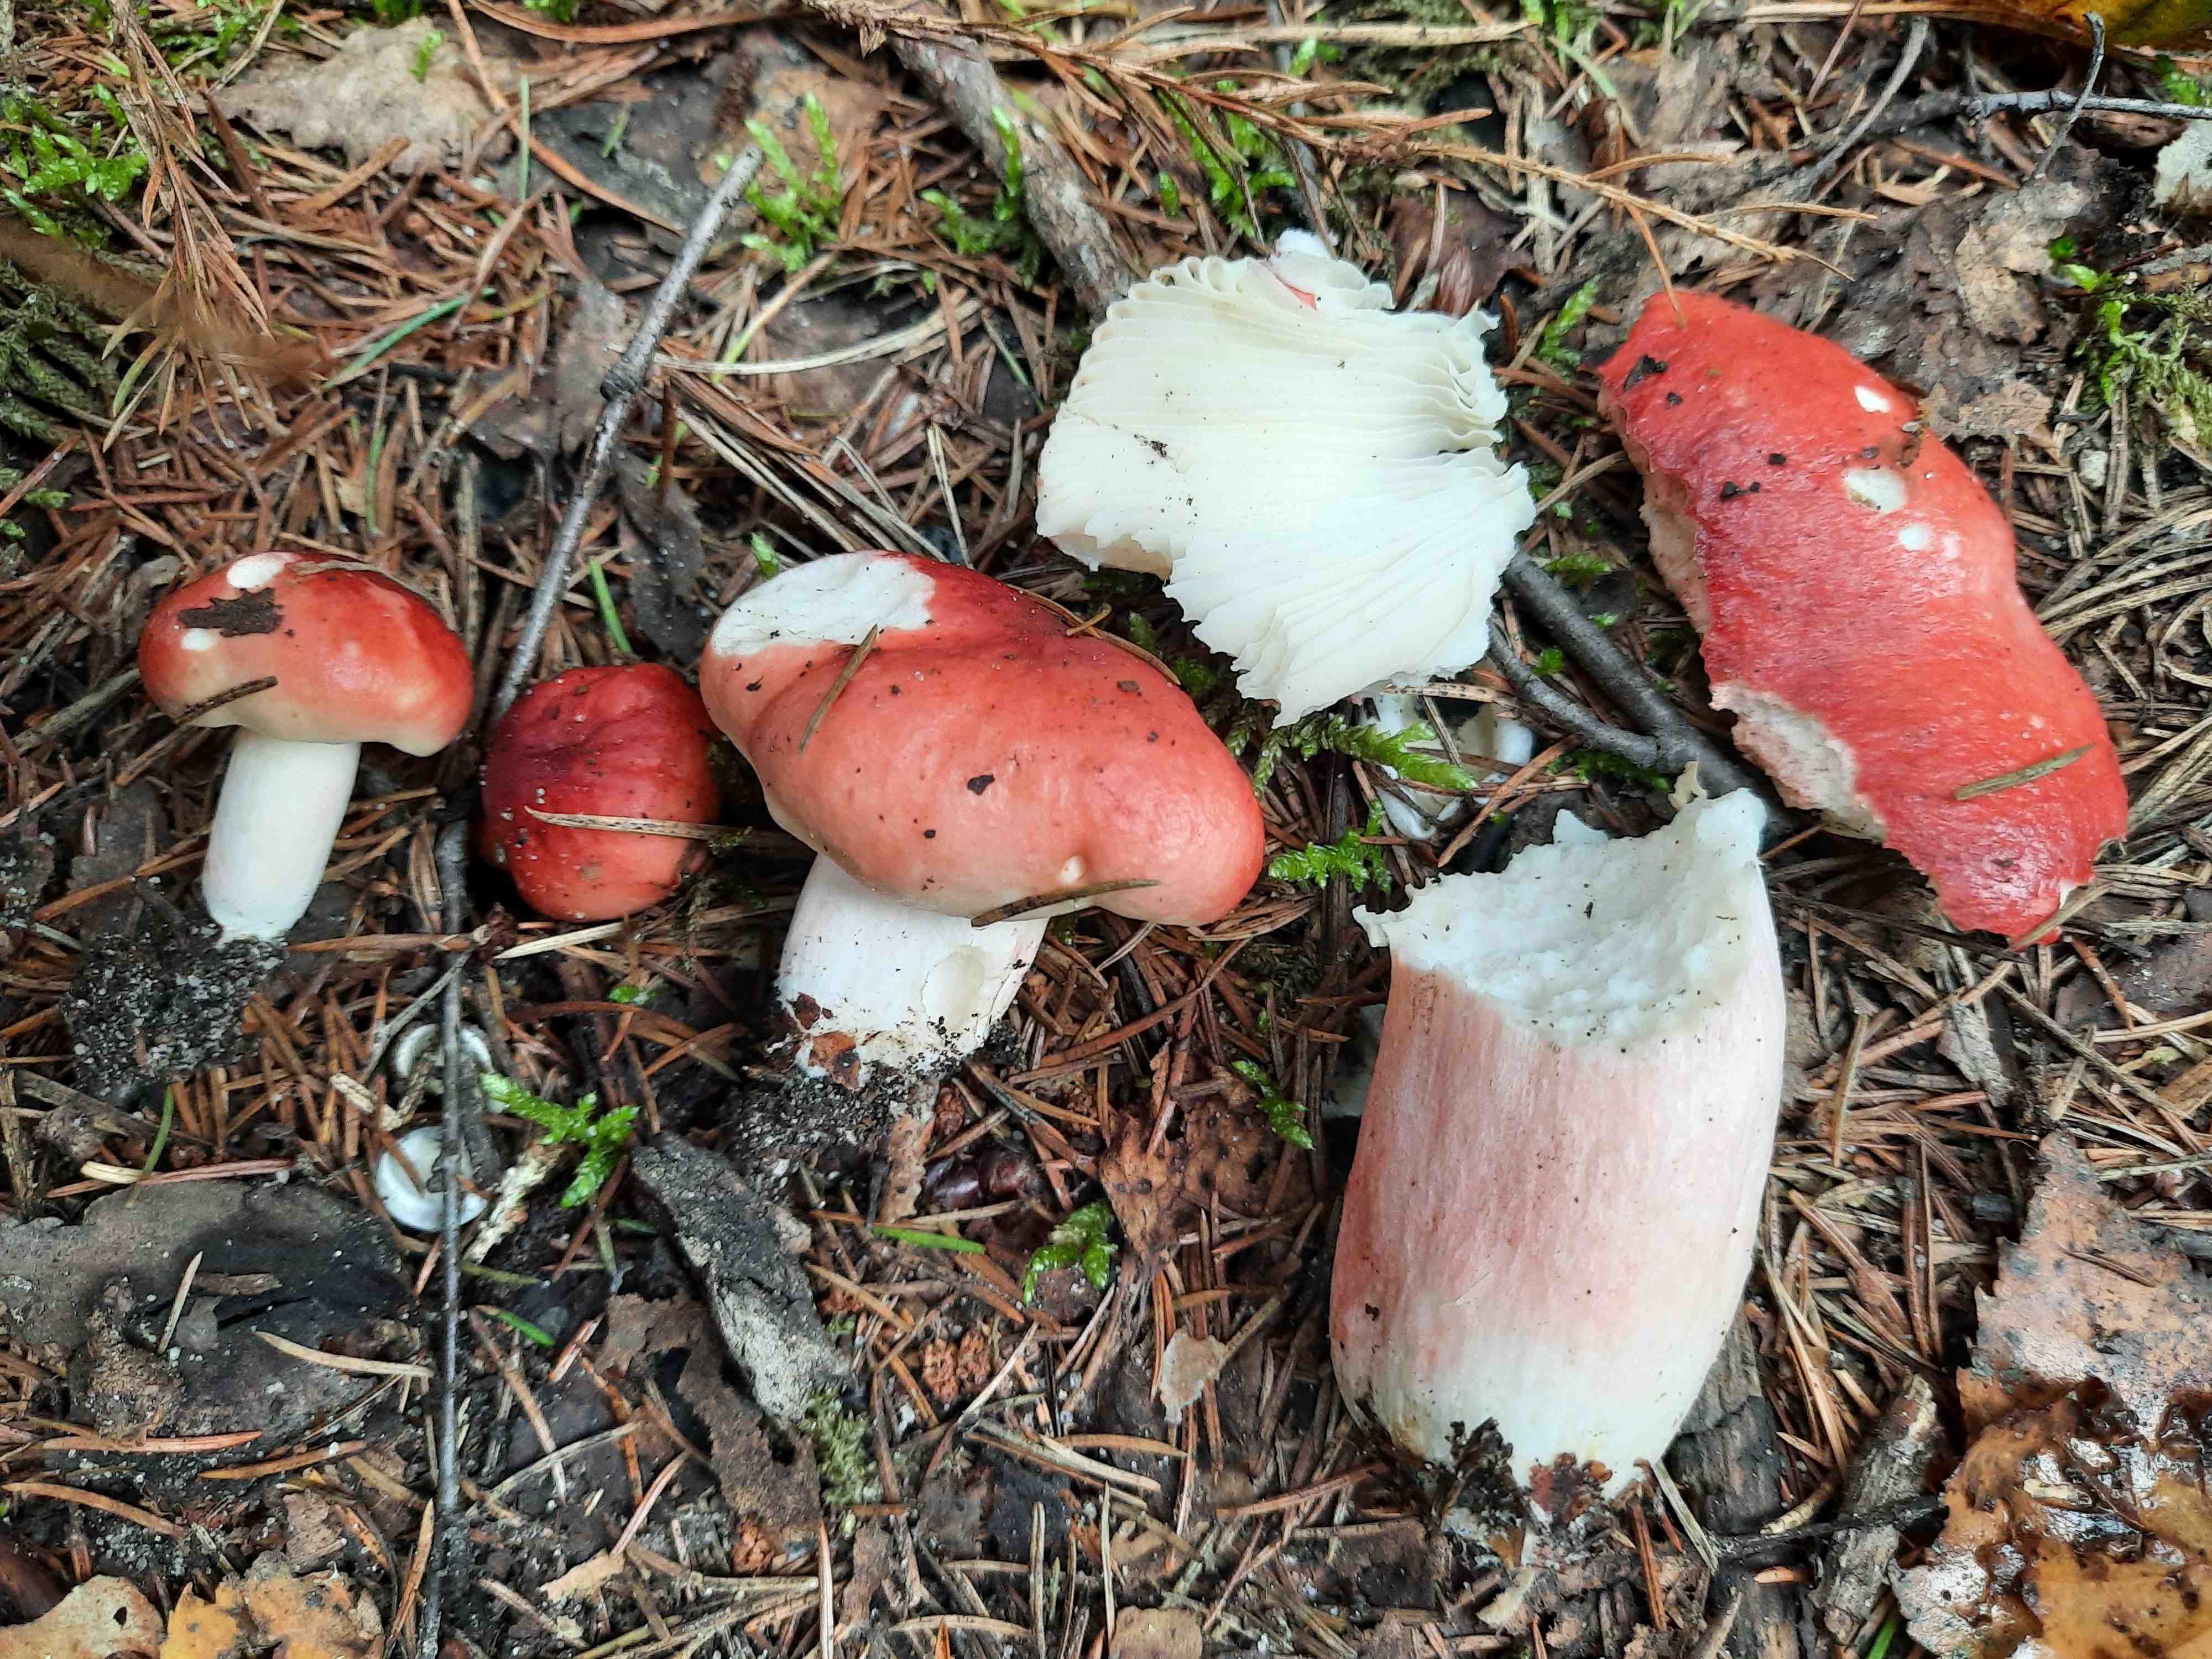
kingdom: Fungi
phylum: Basidiomycota
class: Agaricomycetes
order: Russulales
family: Russulaceae
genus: Russula
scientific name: Russula sanguinea
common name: blodrød skørhat
